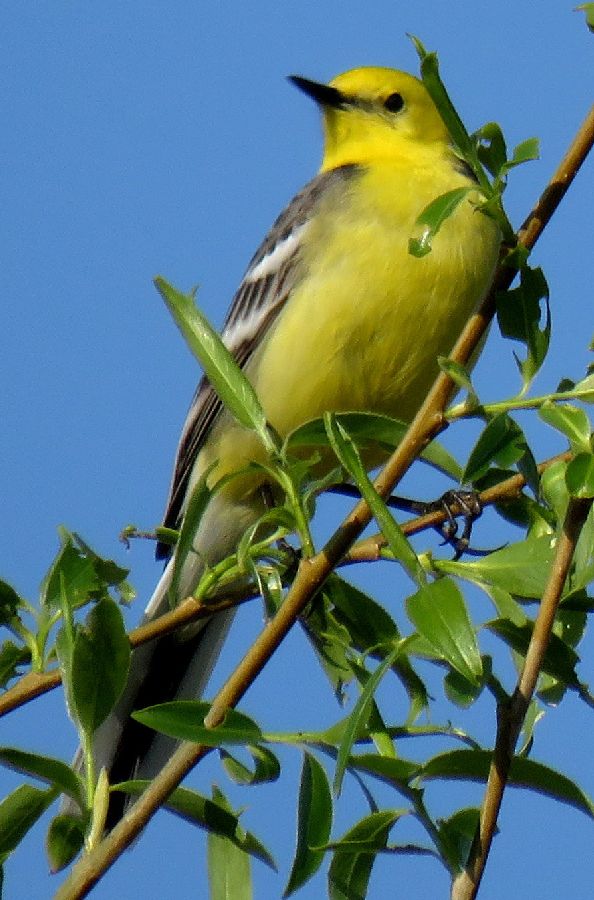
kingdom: Animalia
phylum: Chordata
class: Aves
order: Passeriformes
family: Motacillidae
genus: Motacilla
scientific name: Motacilla citreola
